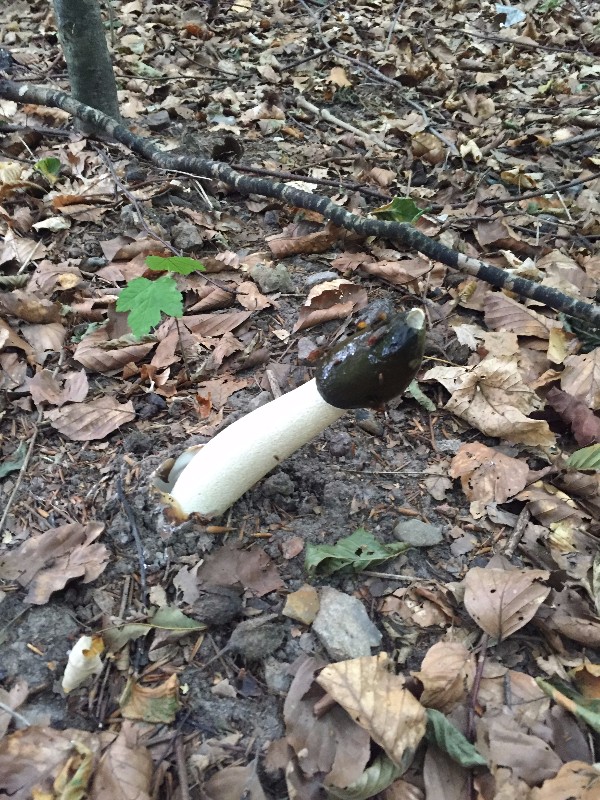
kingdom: Fungi
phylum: Basidiomycota
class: Agaricomycetes
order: Phallales
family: Phallaceae
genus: Phallus
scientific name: Phallus impudicus
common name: almindelig stinksvamp
